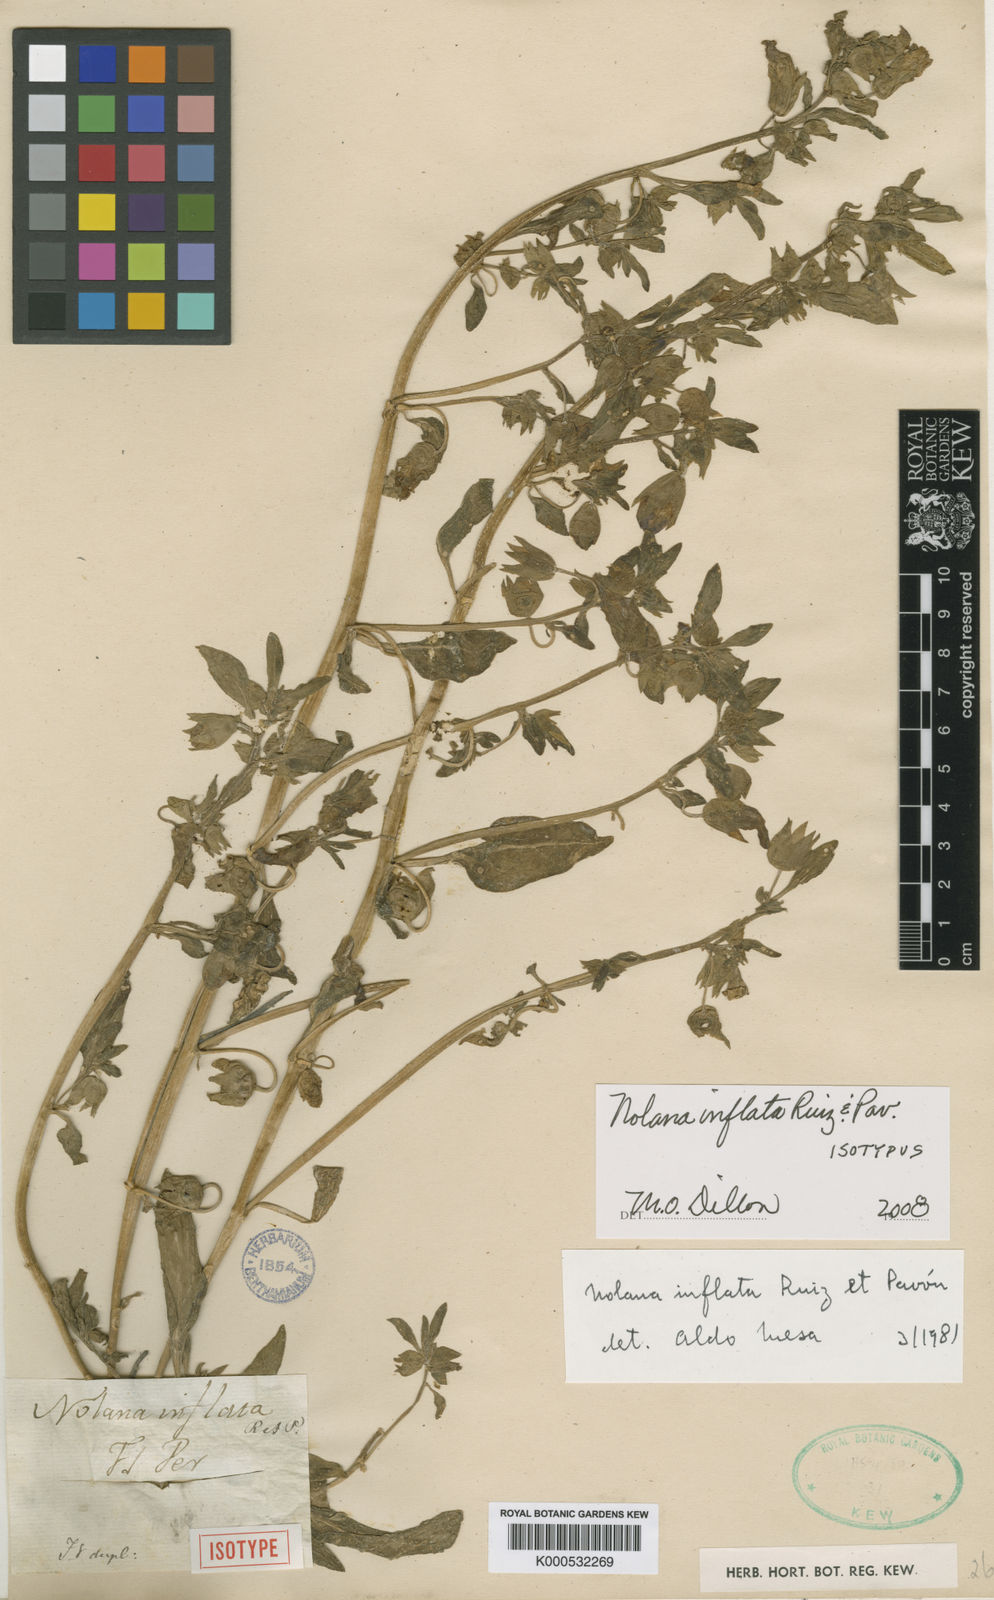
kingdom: Plantae
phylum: Tracheophyta
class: Magnoliopsida
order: Solanales
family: Solanaceae
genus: Nolana
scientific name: Nolana inflata
